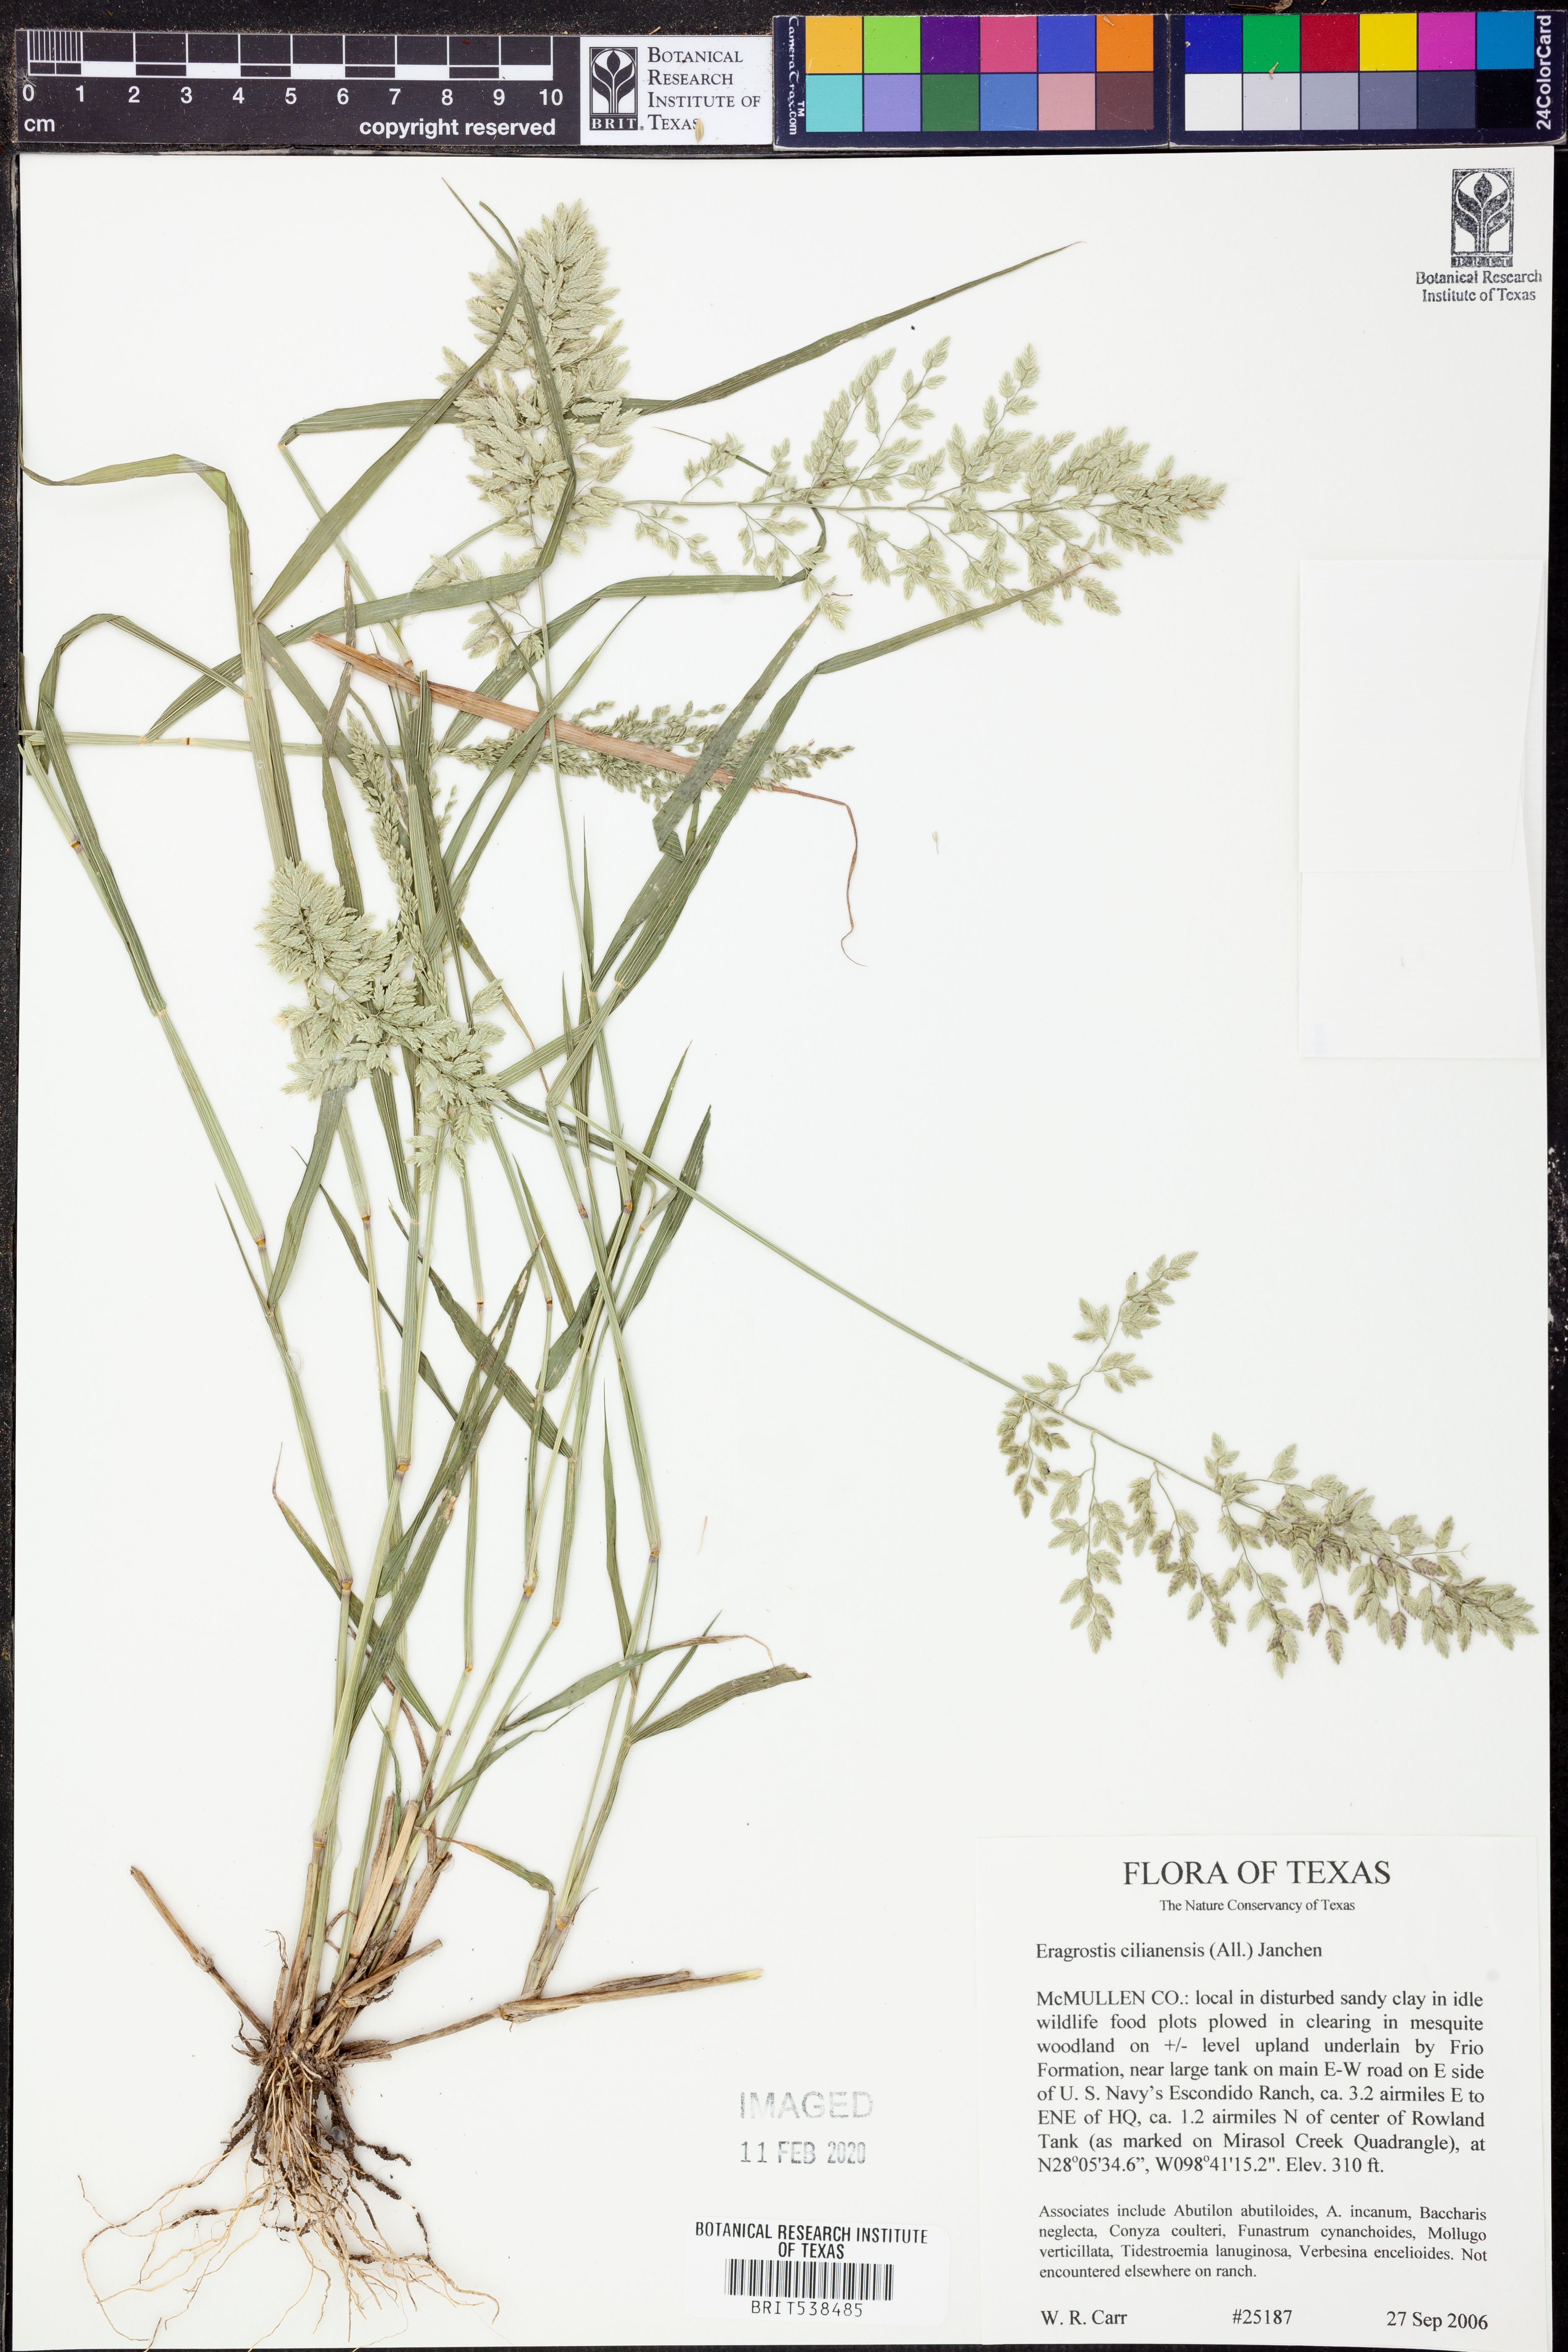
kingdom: Plantae
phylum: Tracheophyta
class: Liliopsida
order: Poales
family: Poaceae
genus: Eragrostis
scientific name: Eragrostis cilianensis
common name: Stinkgrass
